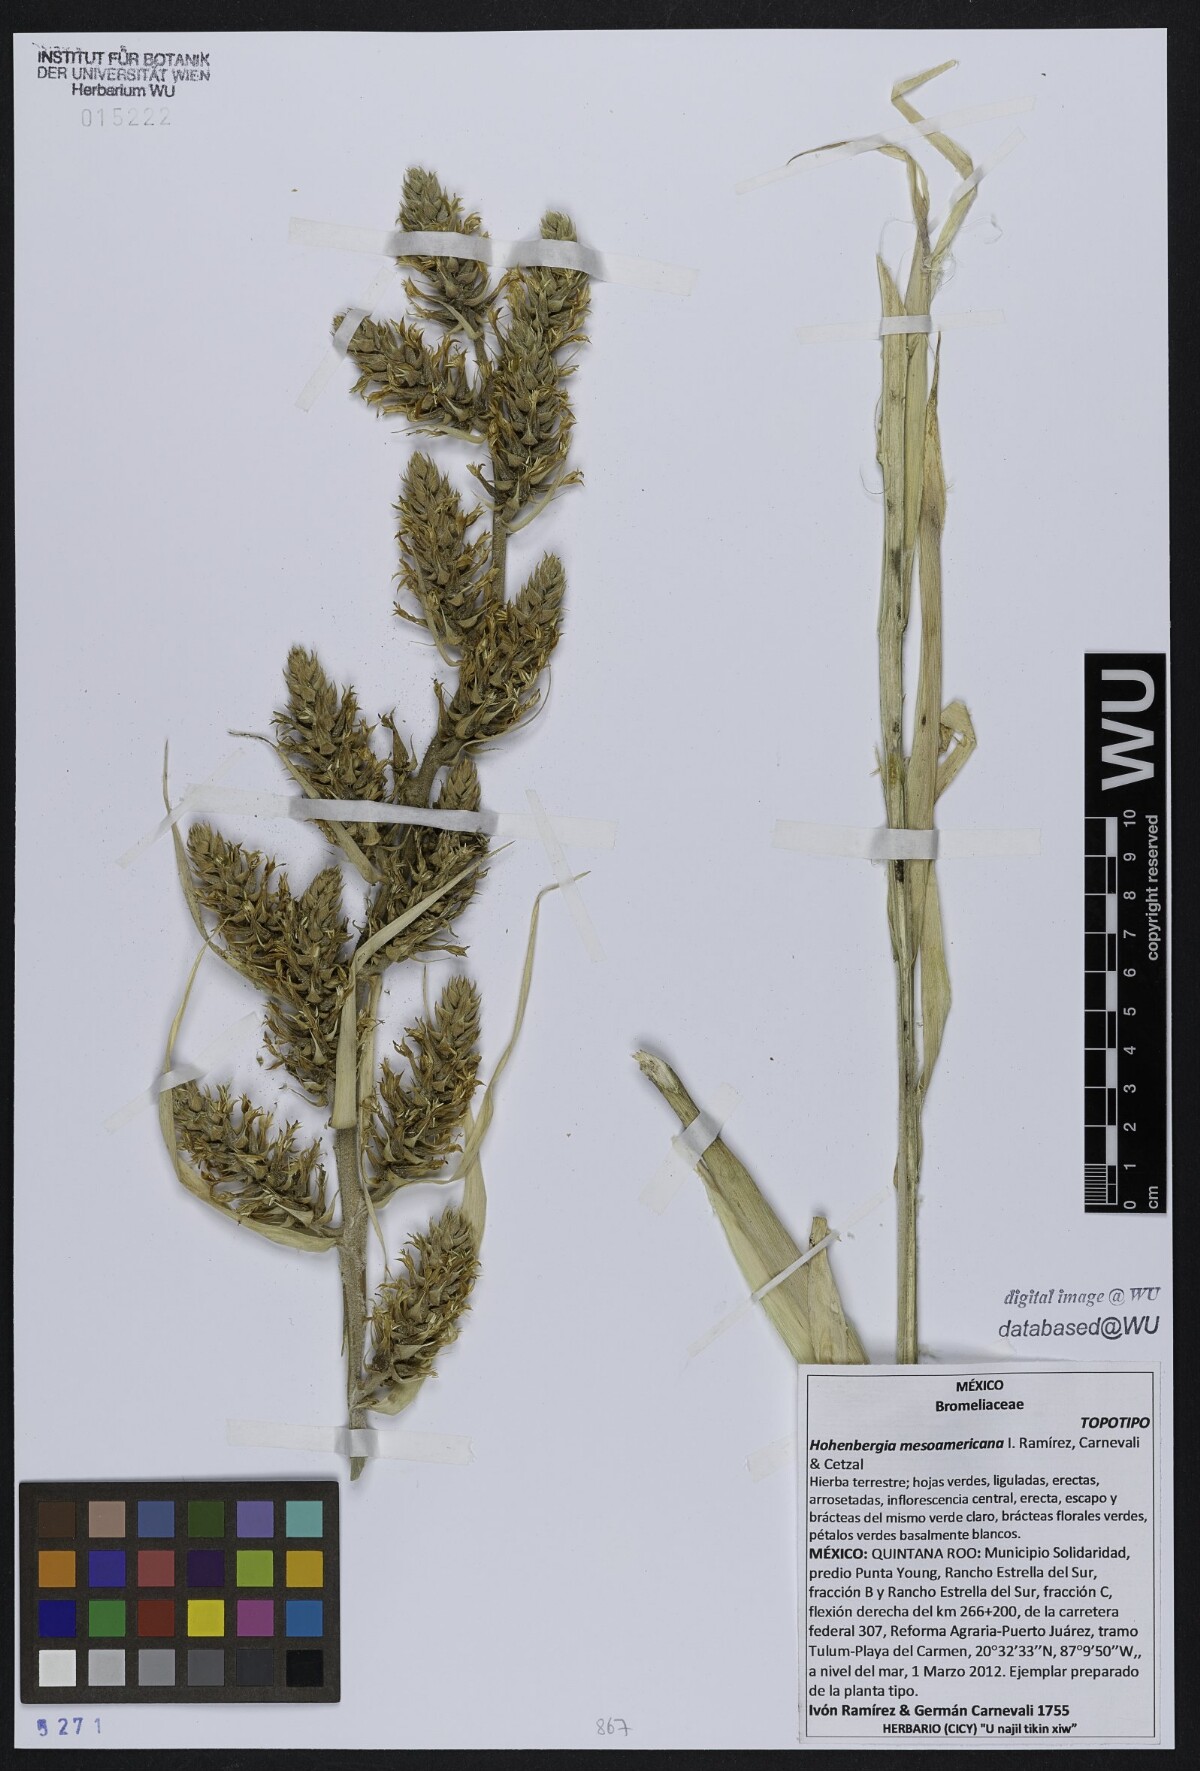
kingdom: Plantae
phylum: Tracheophyta
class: Liliopsida
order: Poales
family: Bromeliaceae
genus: Wittmackia
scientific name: Wittmackia mesoamericana
